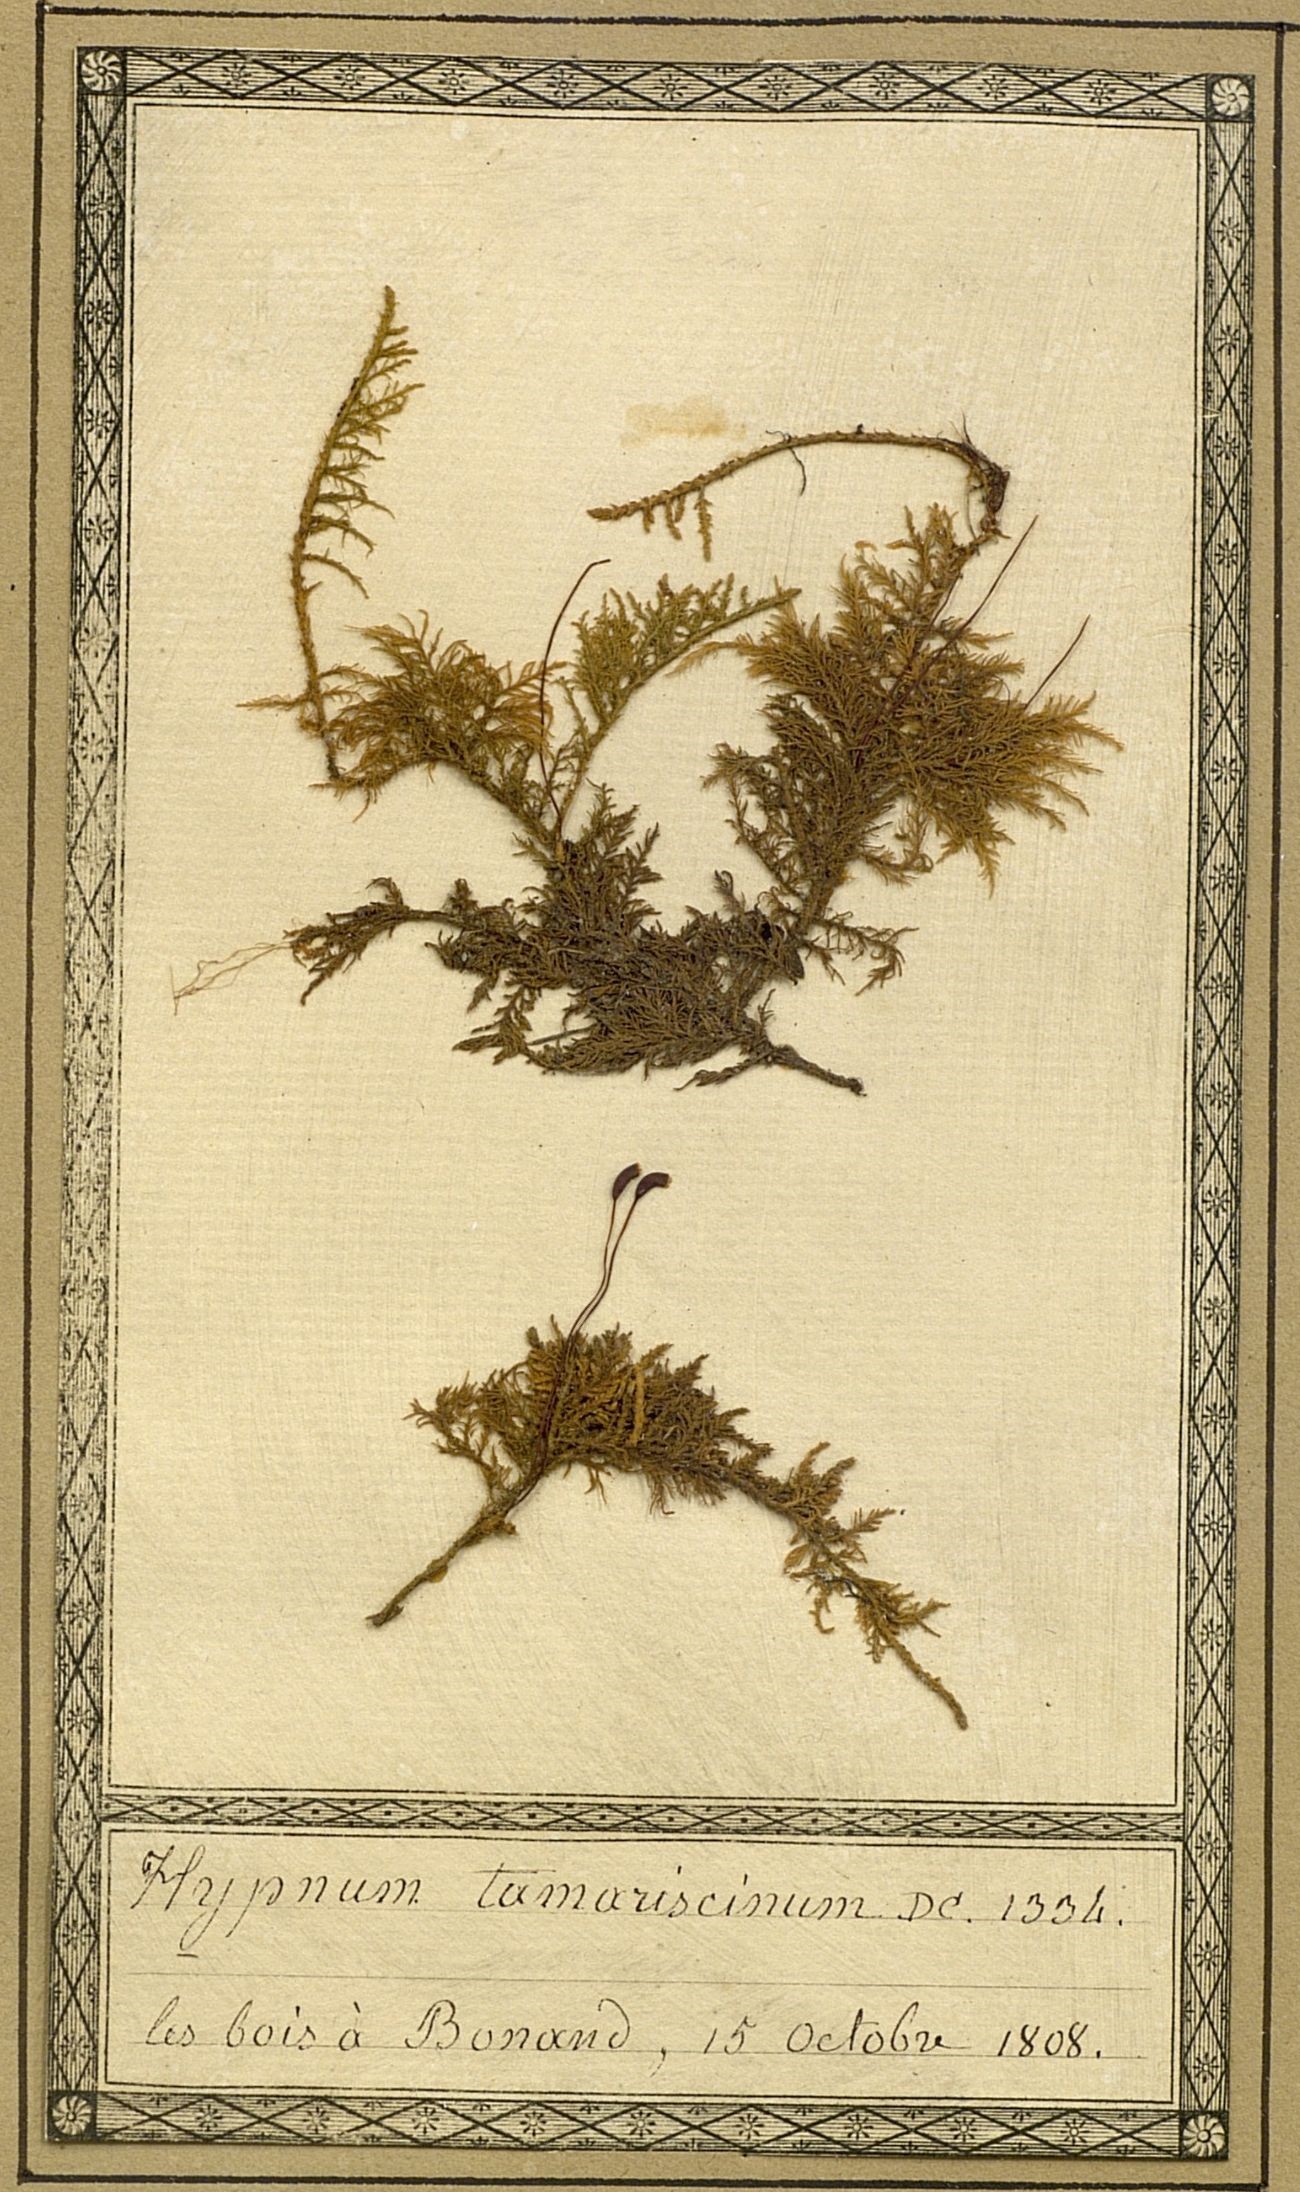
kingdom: Plantae
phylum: Bryophyta
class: Bryopsida
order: Hypnales
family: Thuidiaceae
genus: Thuidium
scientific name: Thuidium tamariscinum
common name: Common tamarisk-moss
